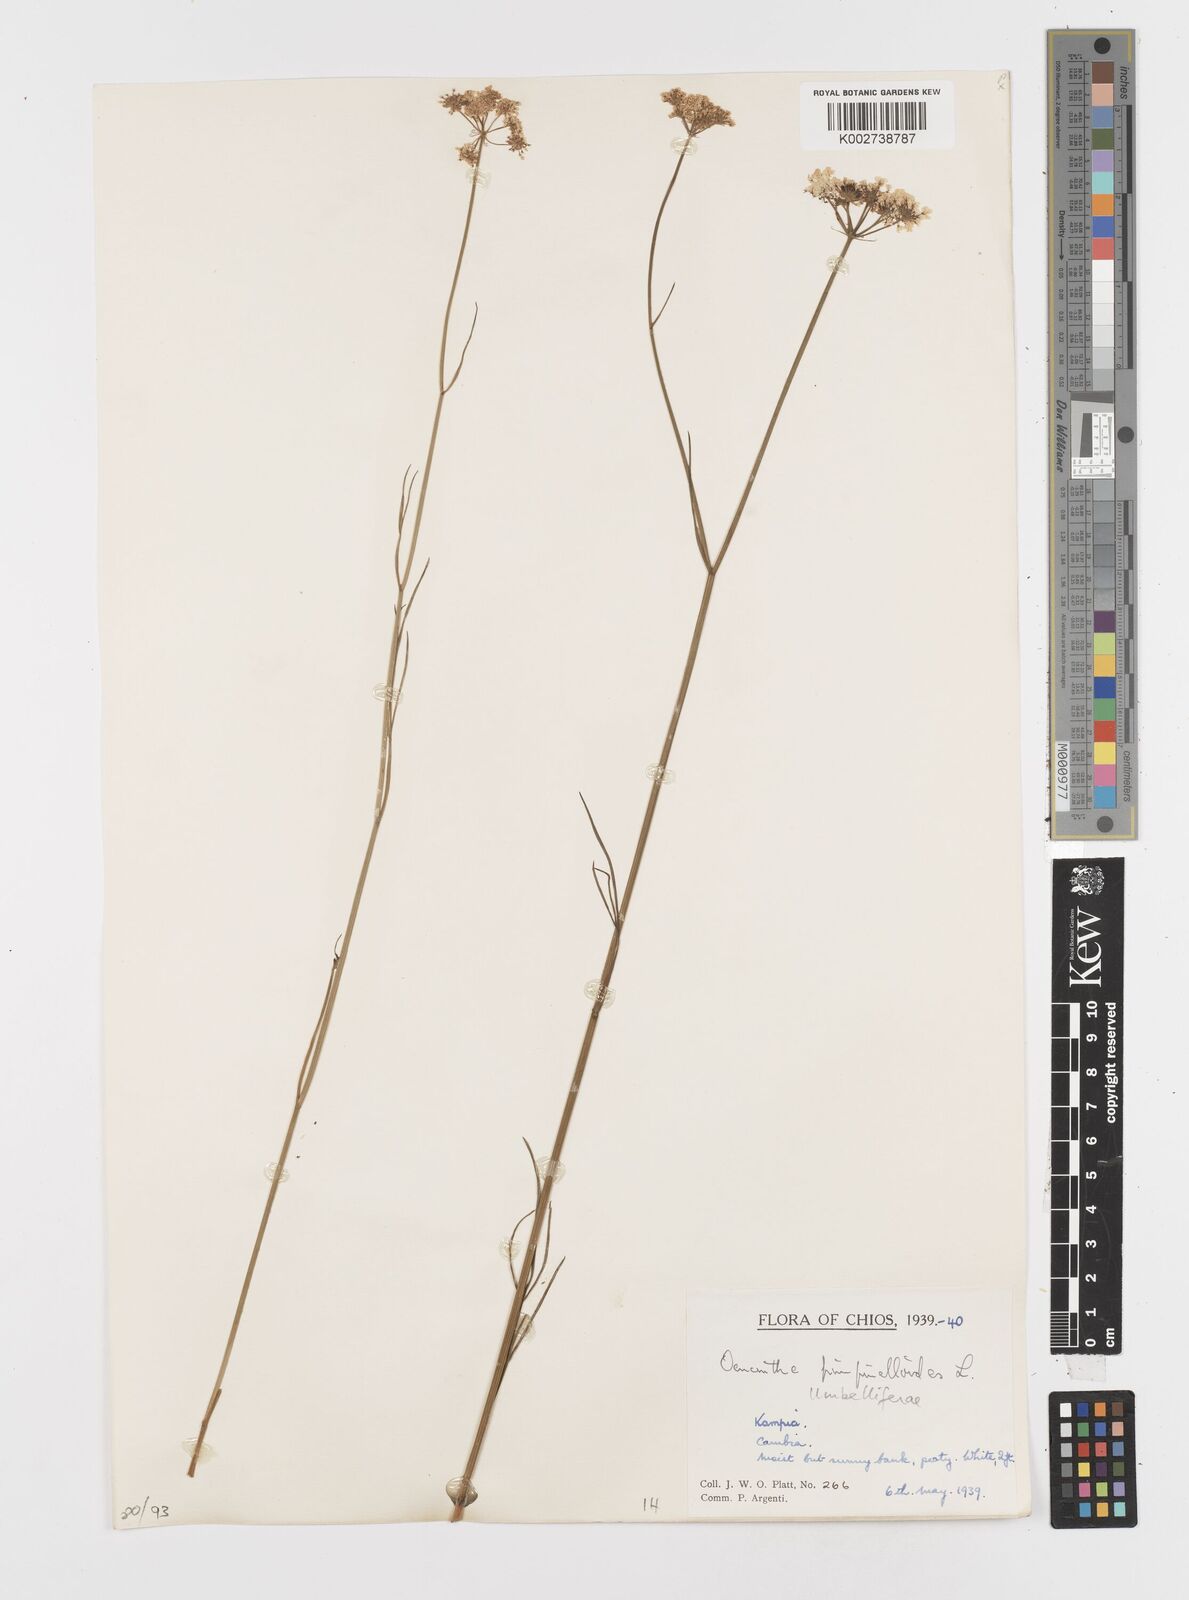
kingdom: Plantae
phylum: Tracheophyta
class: Magnoliopsida
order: Apiales
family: Apiaceae
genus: Oenanthe
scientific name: Oenanthe pimpinelloides
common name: Corky-fruited water-dropwort
